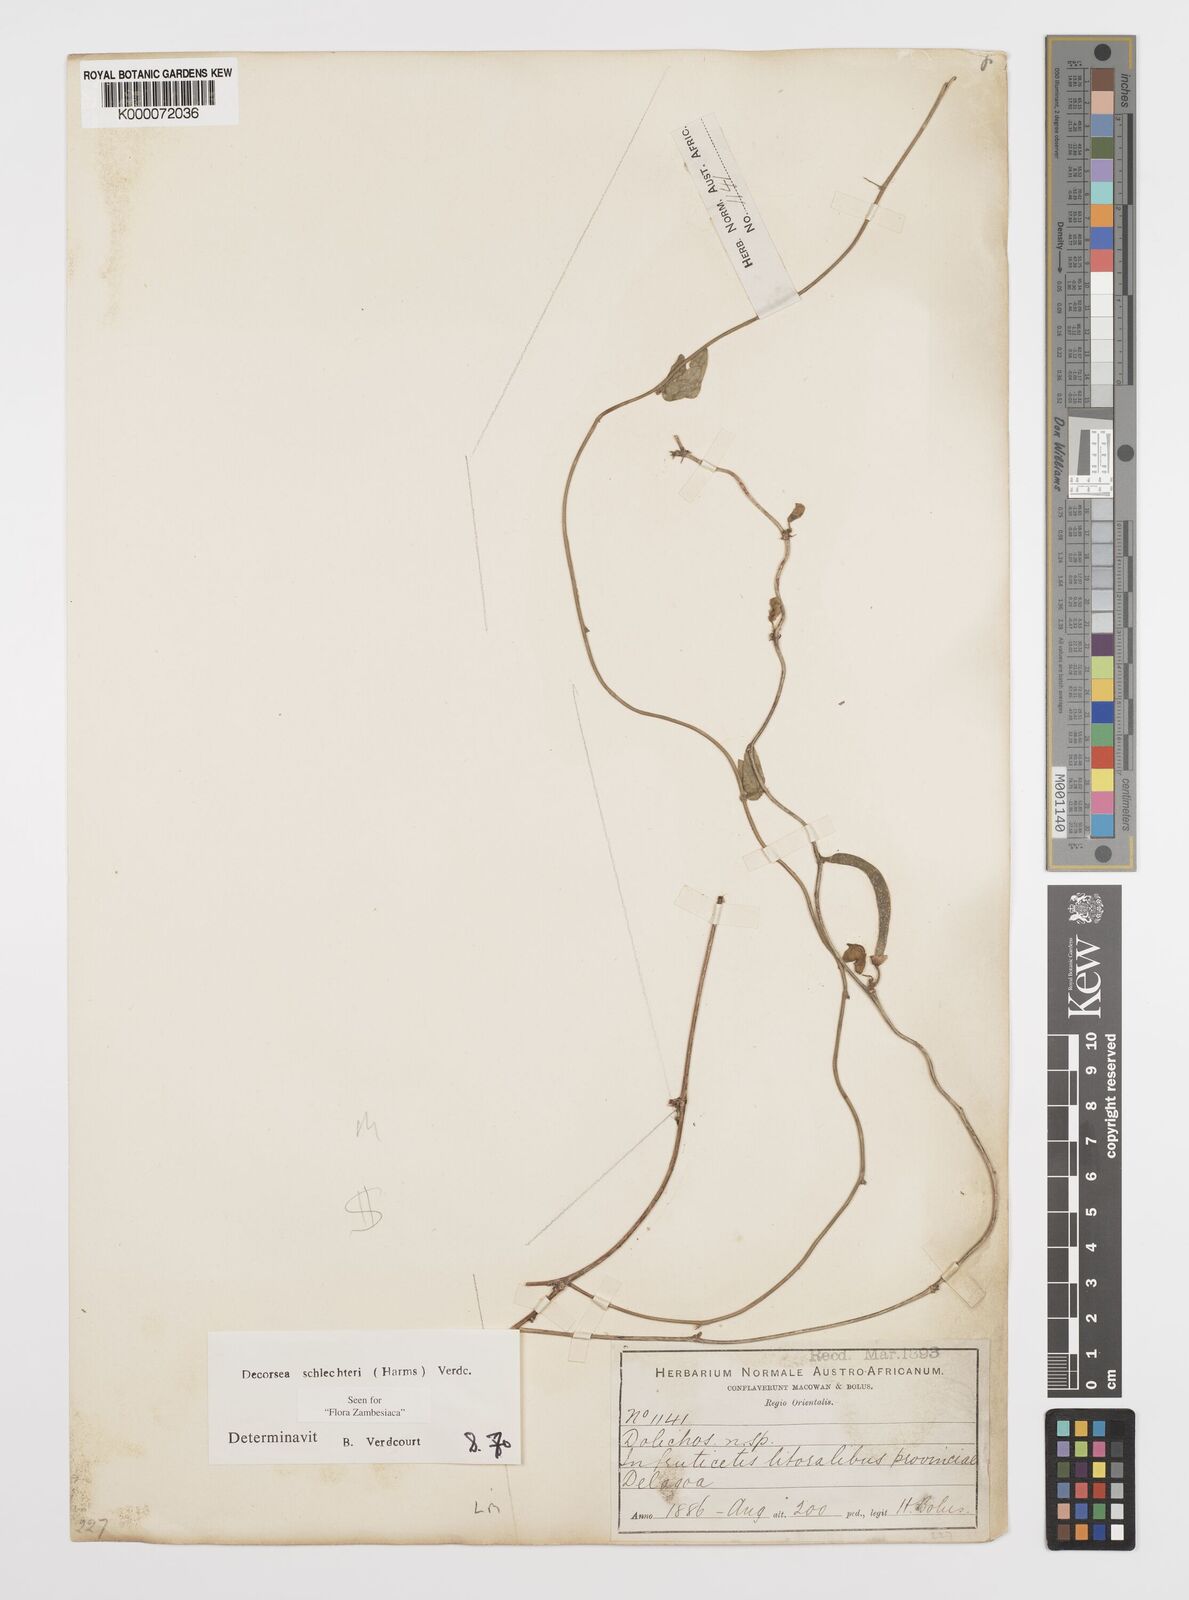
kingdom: Plantae
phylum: Tracheophyta
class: Magnoliopsida
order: Fabales
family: Fabaceae
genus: Decorsea
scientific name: Decorsea schlechteri
